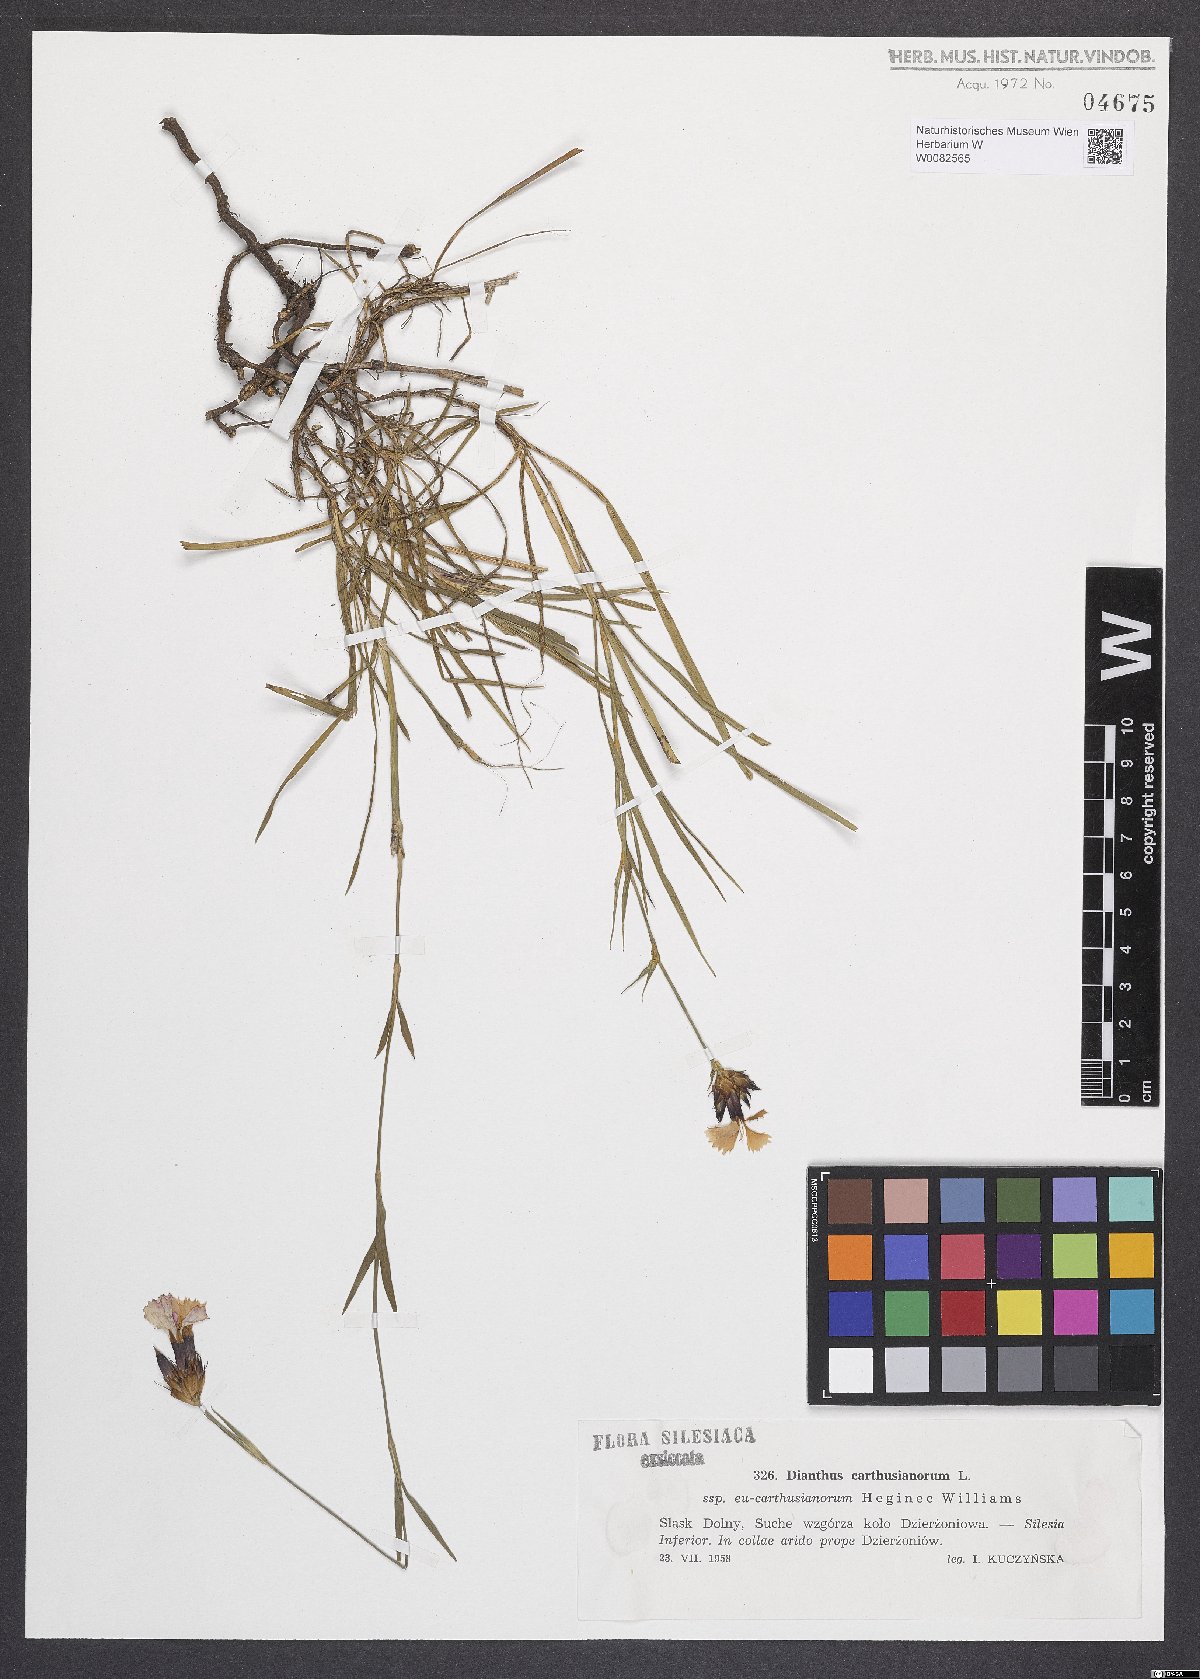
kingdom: Plantae
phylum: Tracheophyta
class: Magnoliopsida
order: Caryophyllales
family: Caryophyllaceae
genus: Dianthus
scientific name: Dianthus carthusianorum
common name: Carthusian pink
